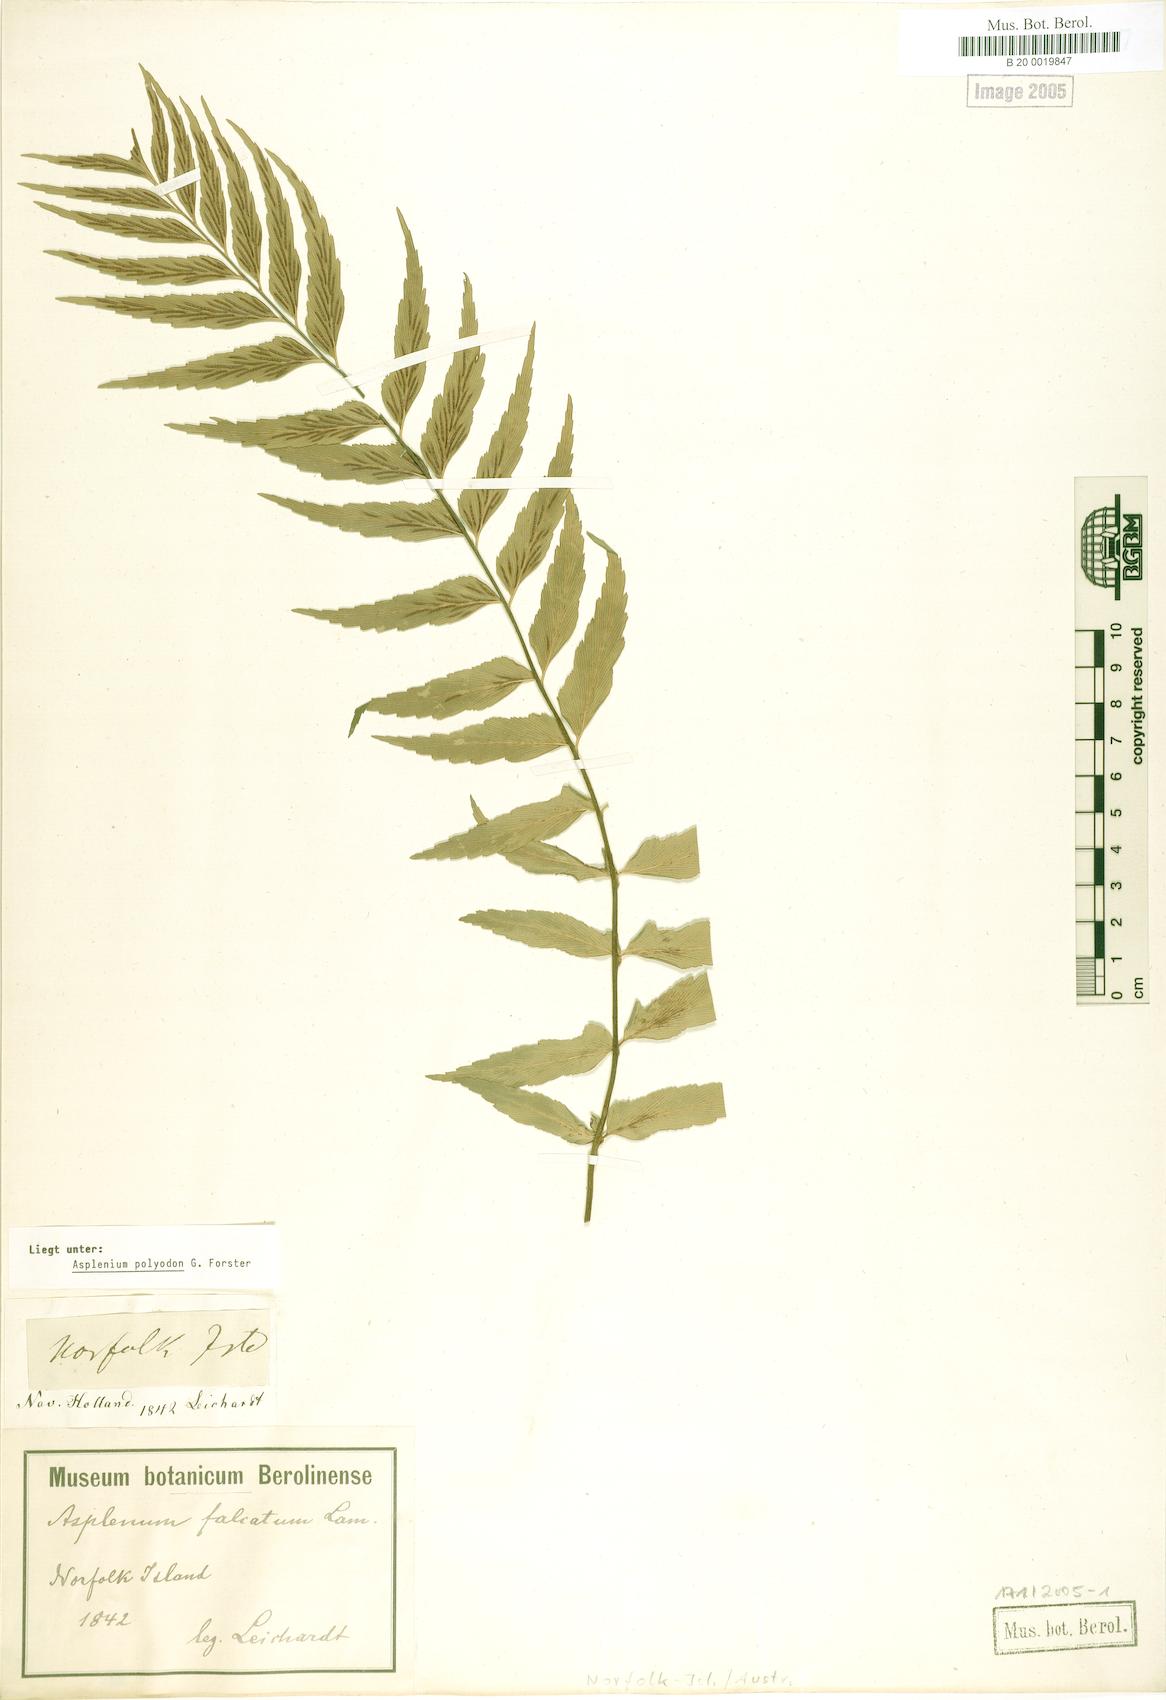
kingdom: Plantae
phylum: Tracheophyta
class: Polypodiopsida
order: Polypodiales
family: Aspleniaceae
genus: Asplenium
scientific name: Asplenium polyodon
